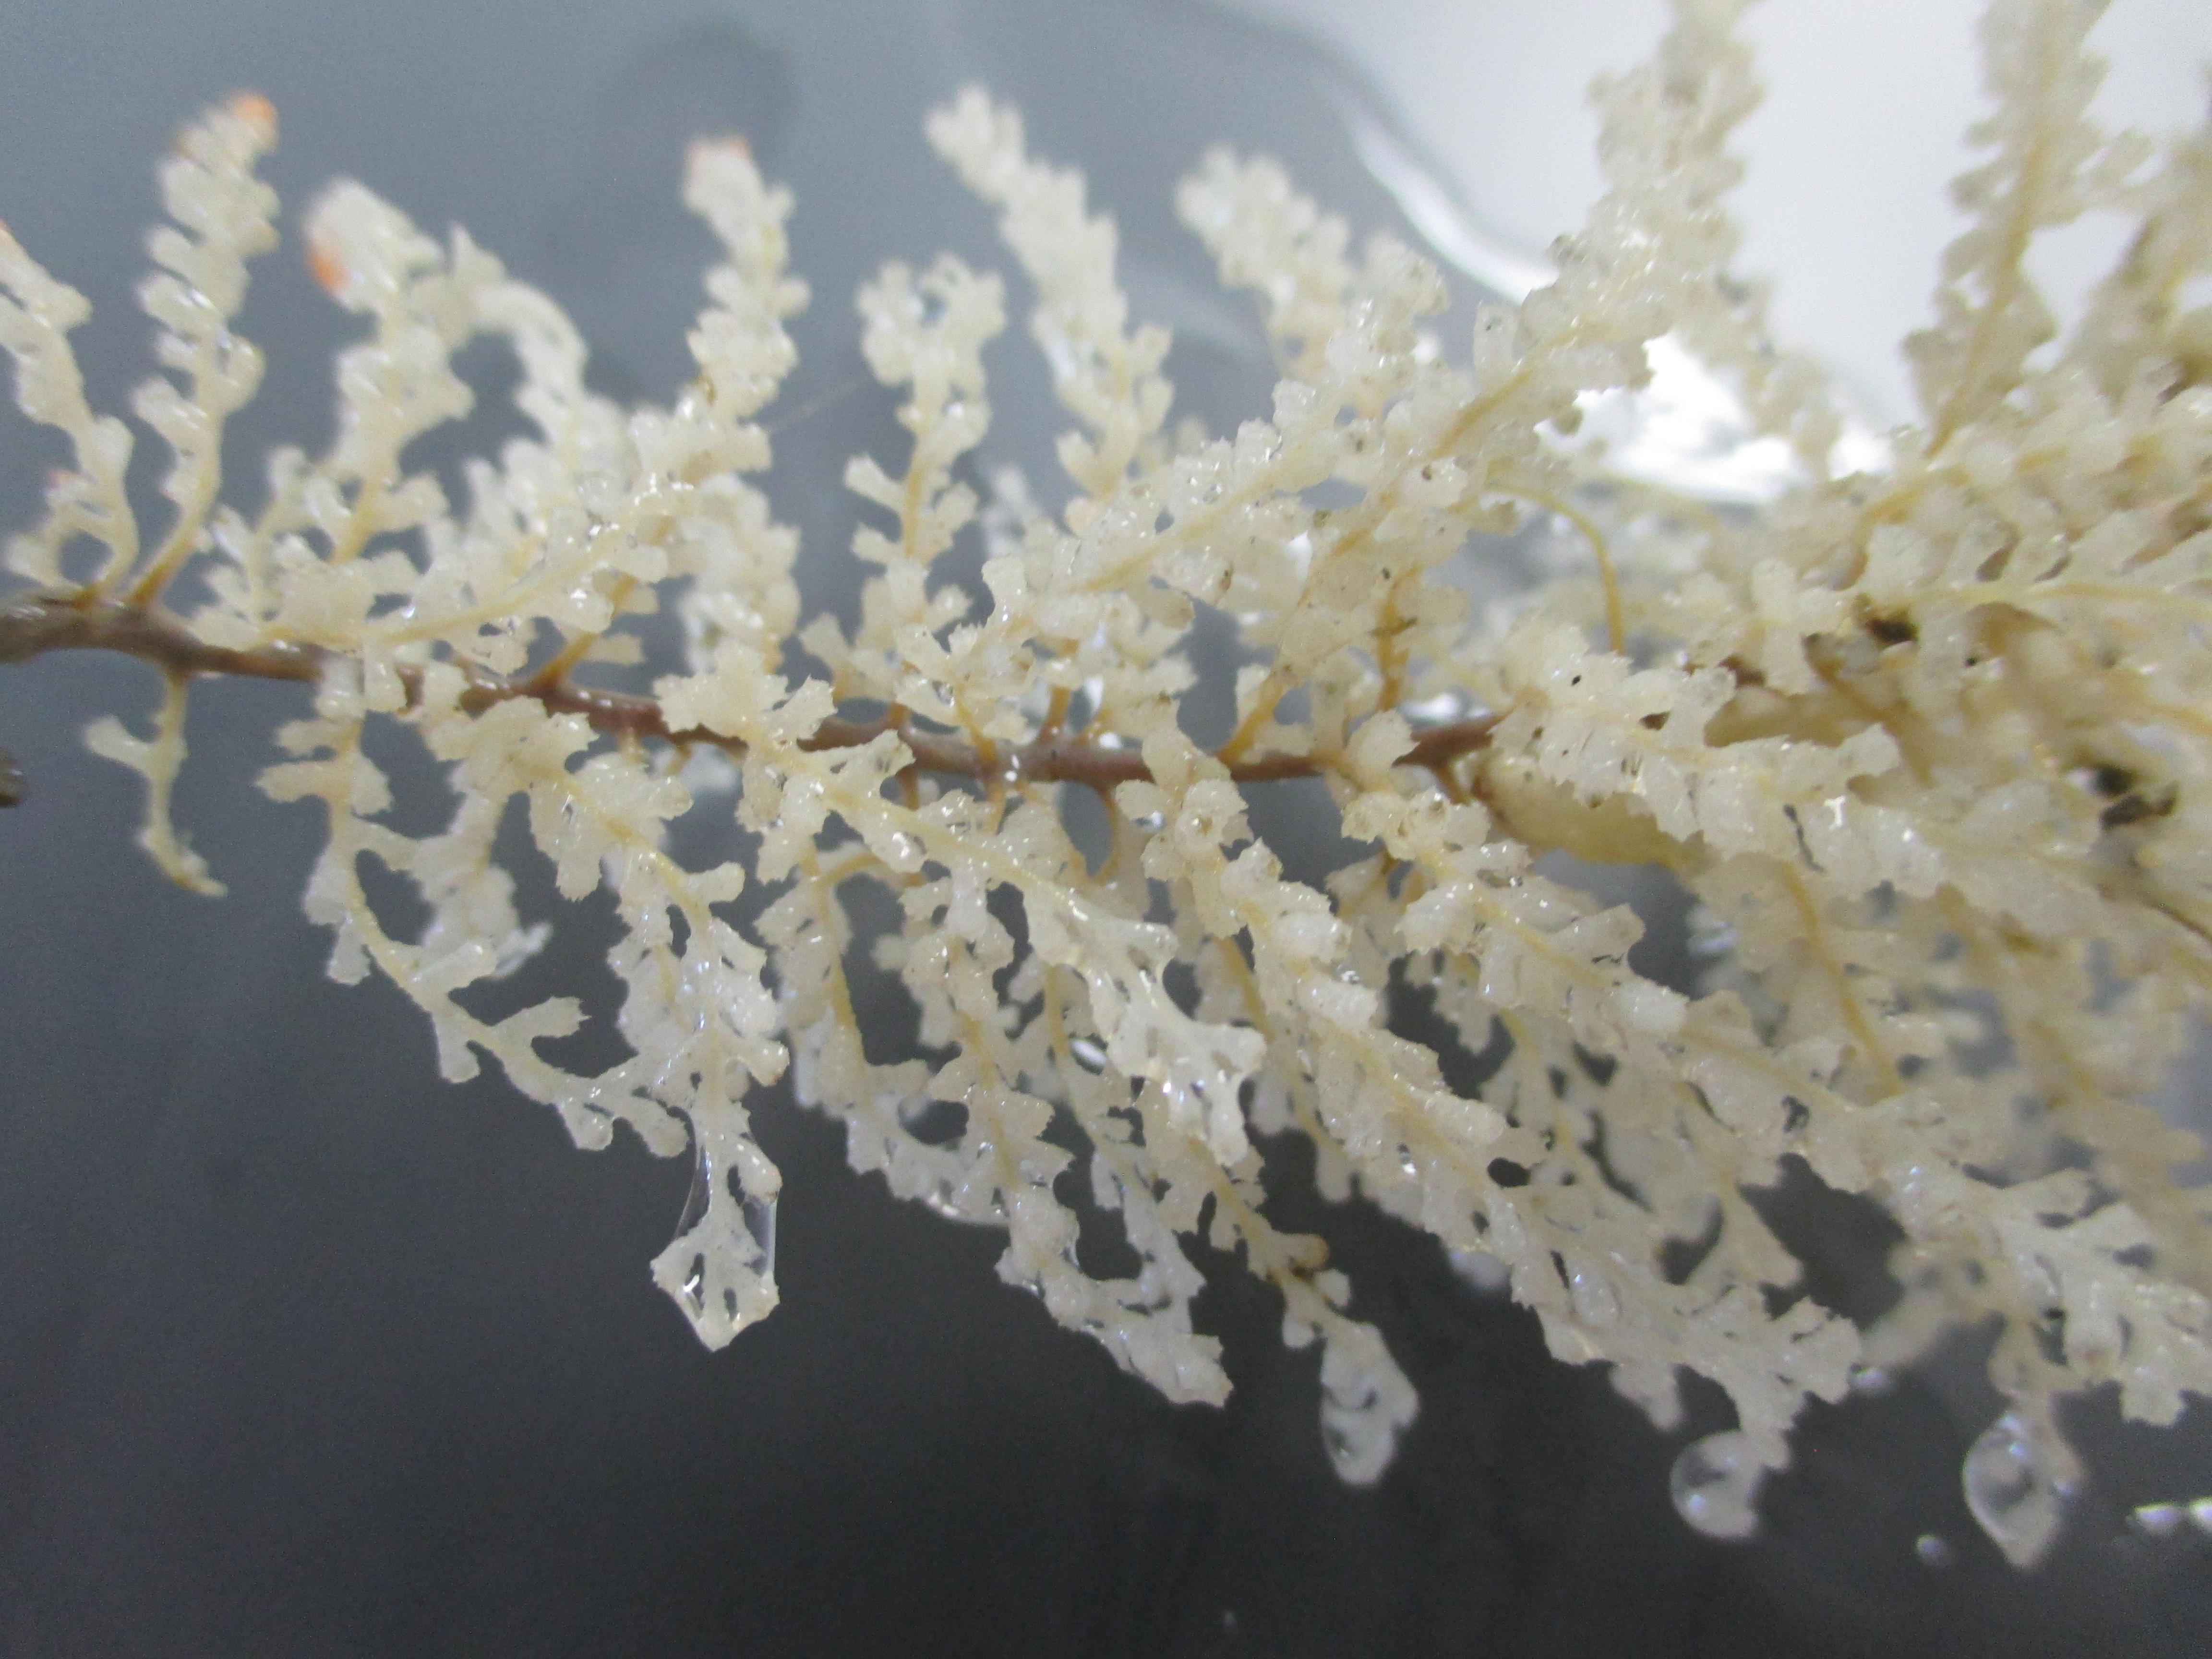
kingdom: Animalia
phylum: Cnidaria
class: Anthozoa
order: Scleralcyonacea
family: Primnoidae
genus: Thouarella
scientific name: Thouarella
